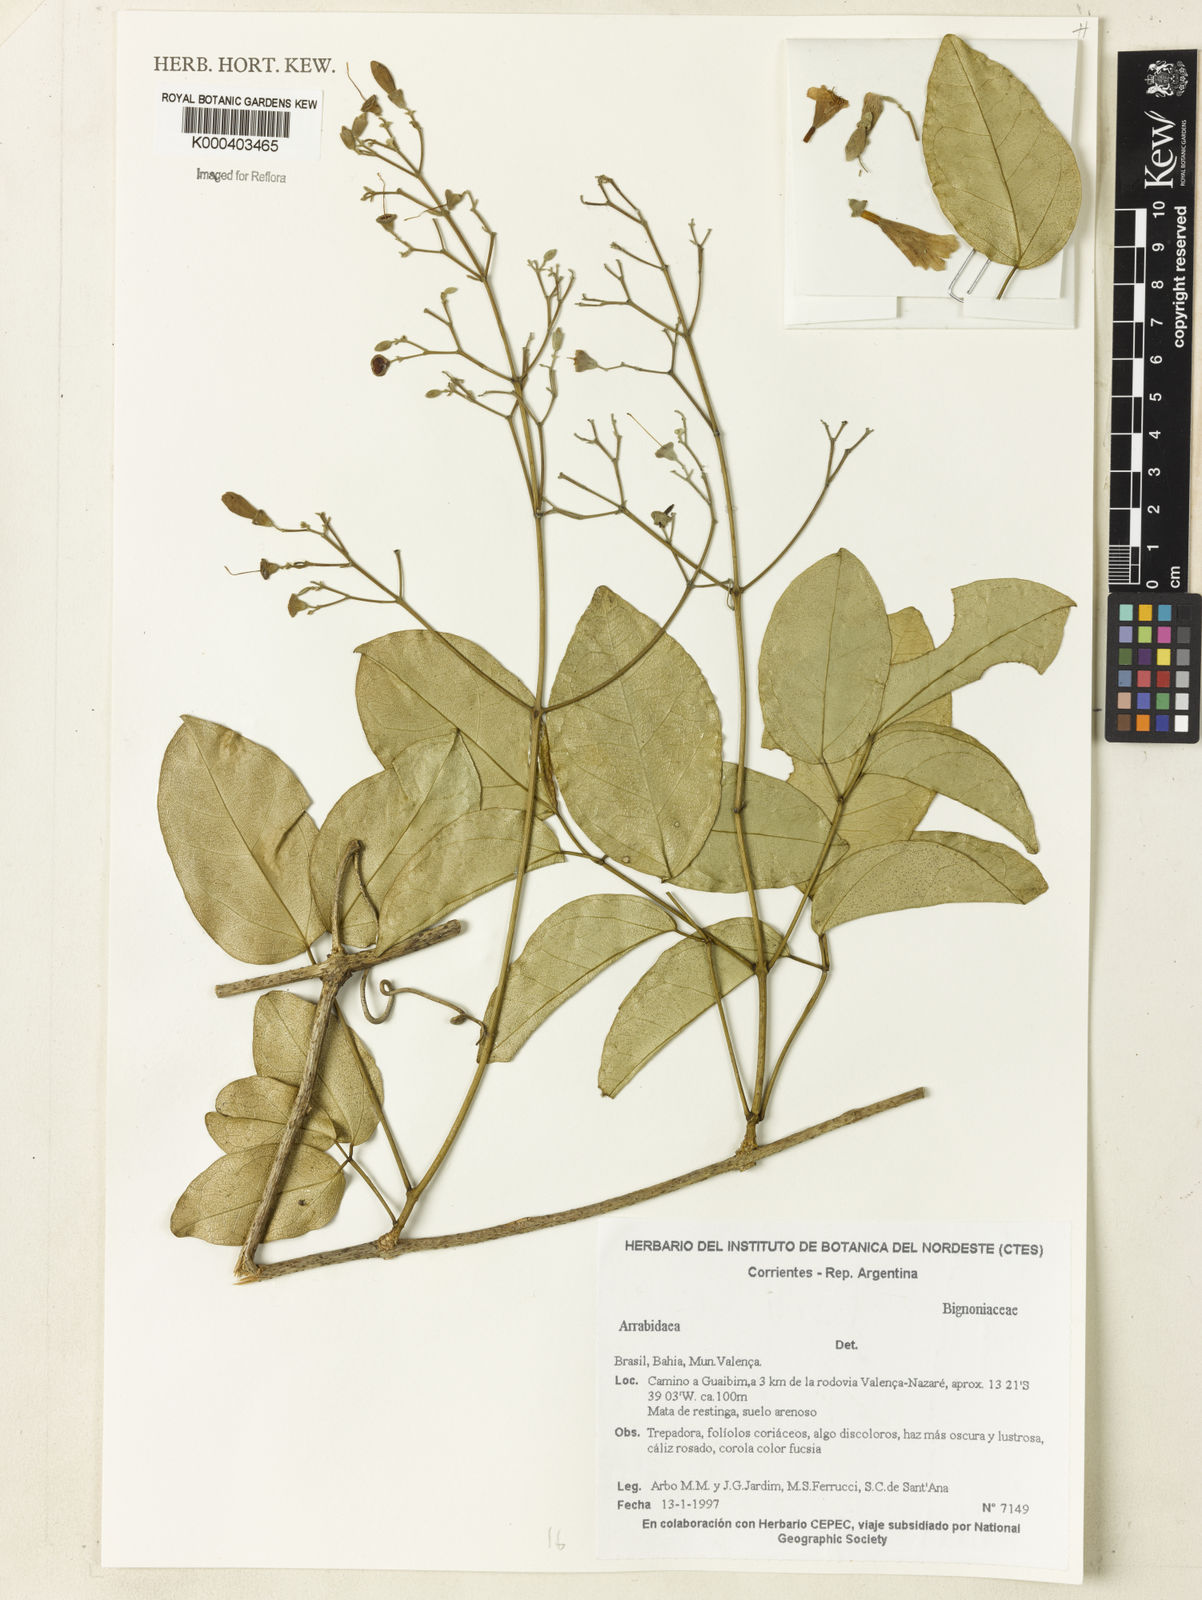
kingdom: Plantae
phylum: Tracheophyta
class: Magnoliopsida
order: Rosales
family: Rhamnaceae
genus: Arrabidaea
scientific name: Arrabidaea
